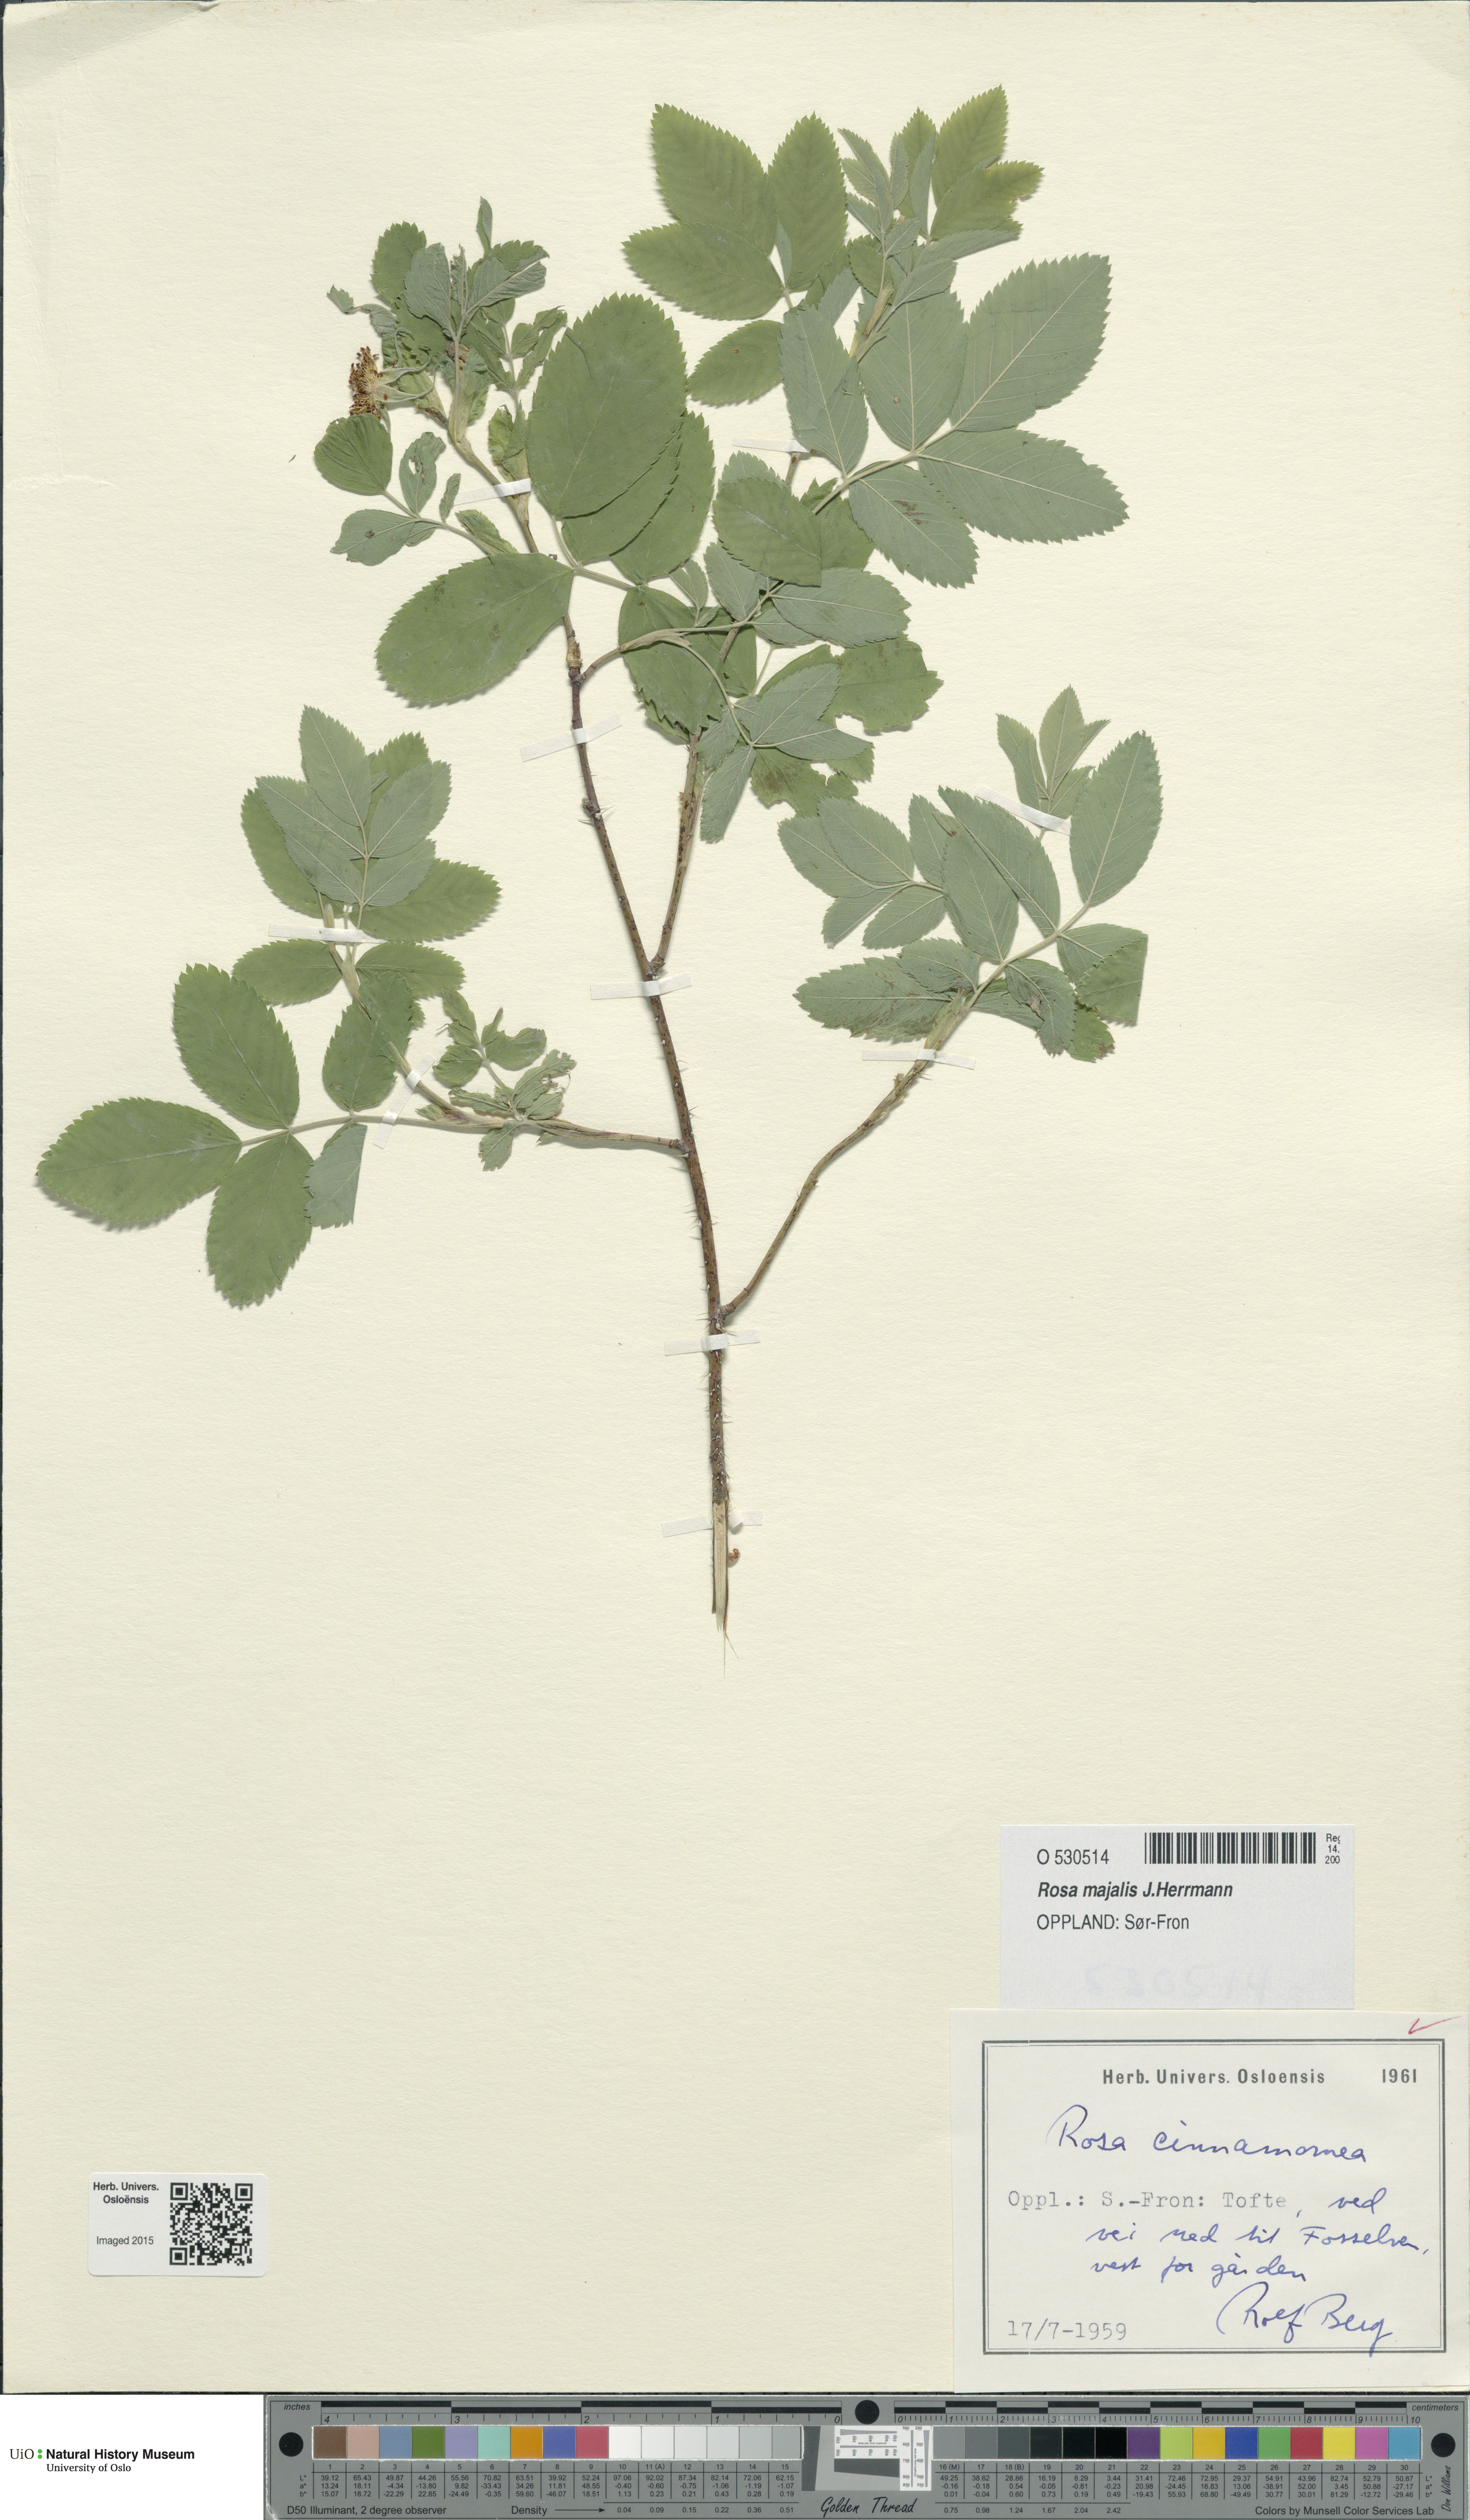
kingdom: Plantae
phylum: Tracheophyta
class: Magnoliopsida
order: Rosales
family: Rosaceae
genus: Rosa
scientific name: Rosa pendulina
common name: Alpine rose
